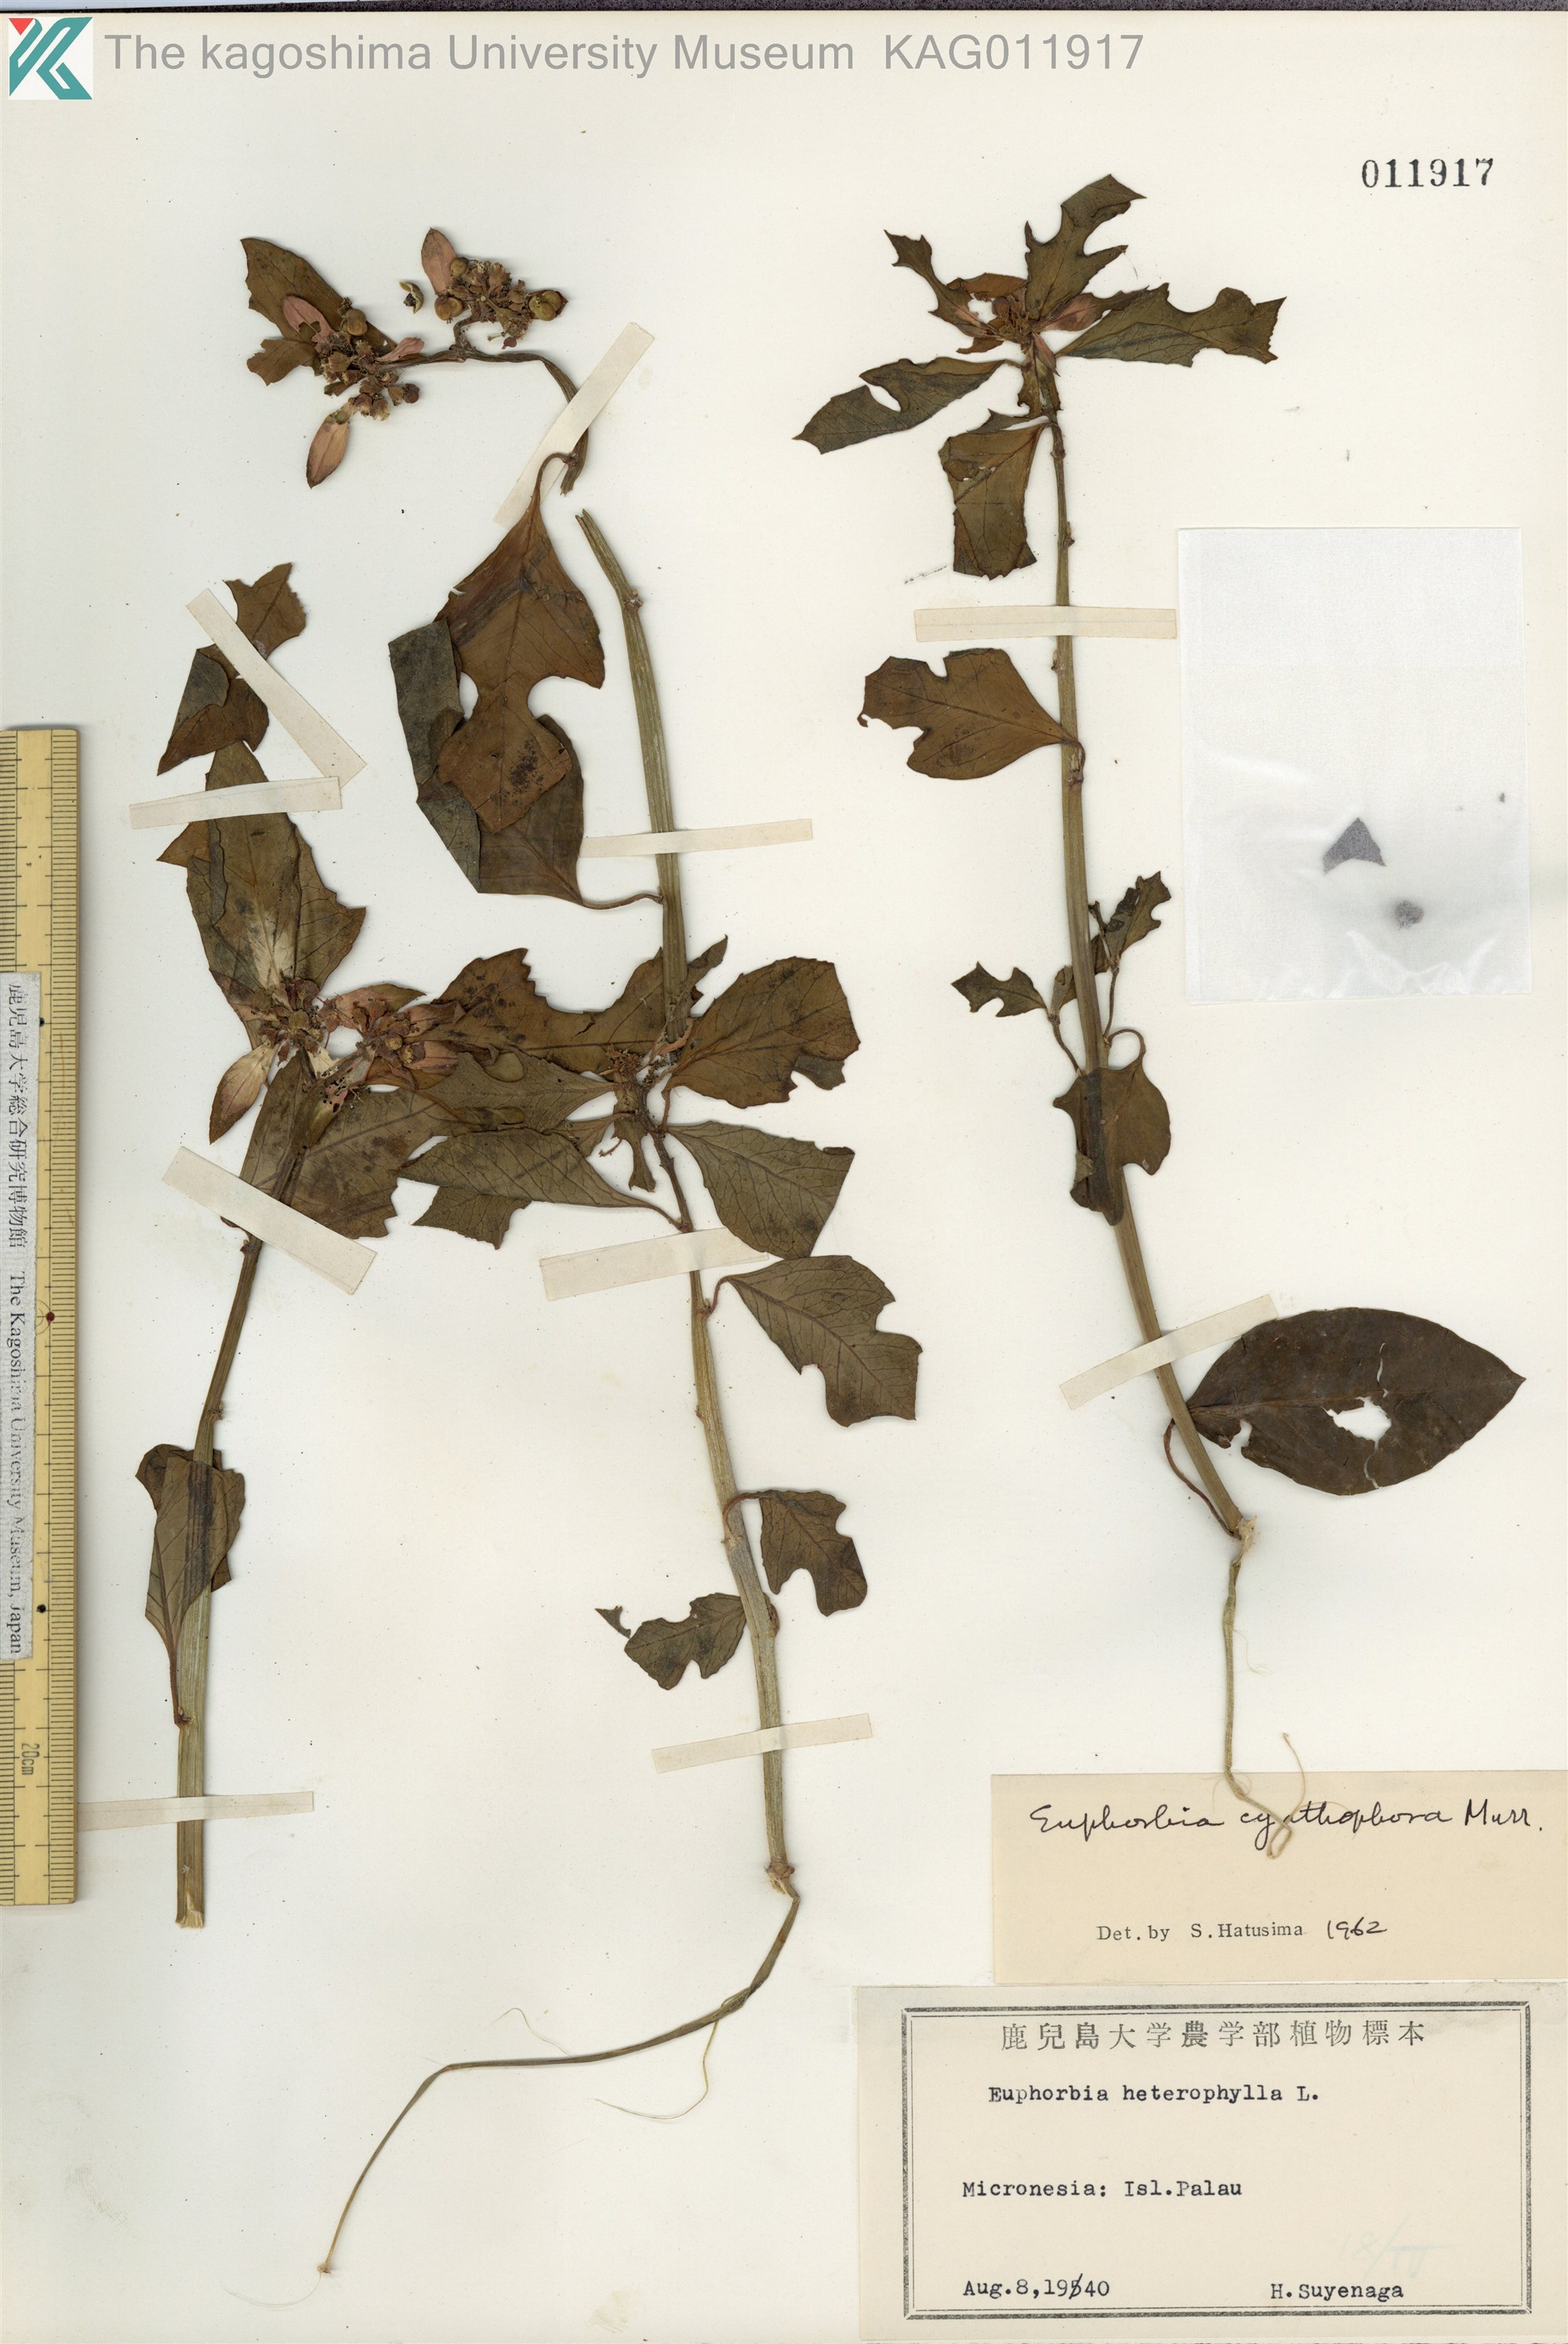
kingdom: Plantae
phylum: Tracheophyta
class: Magnoliopsida
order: Malpighiales
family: Euphorbiaceae
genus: Euphorbia
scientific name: Euphorbia heterophylla
